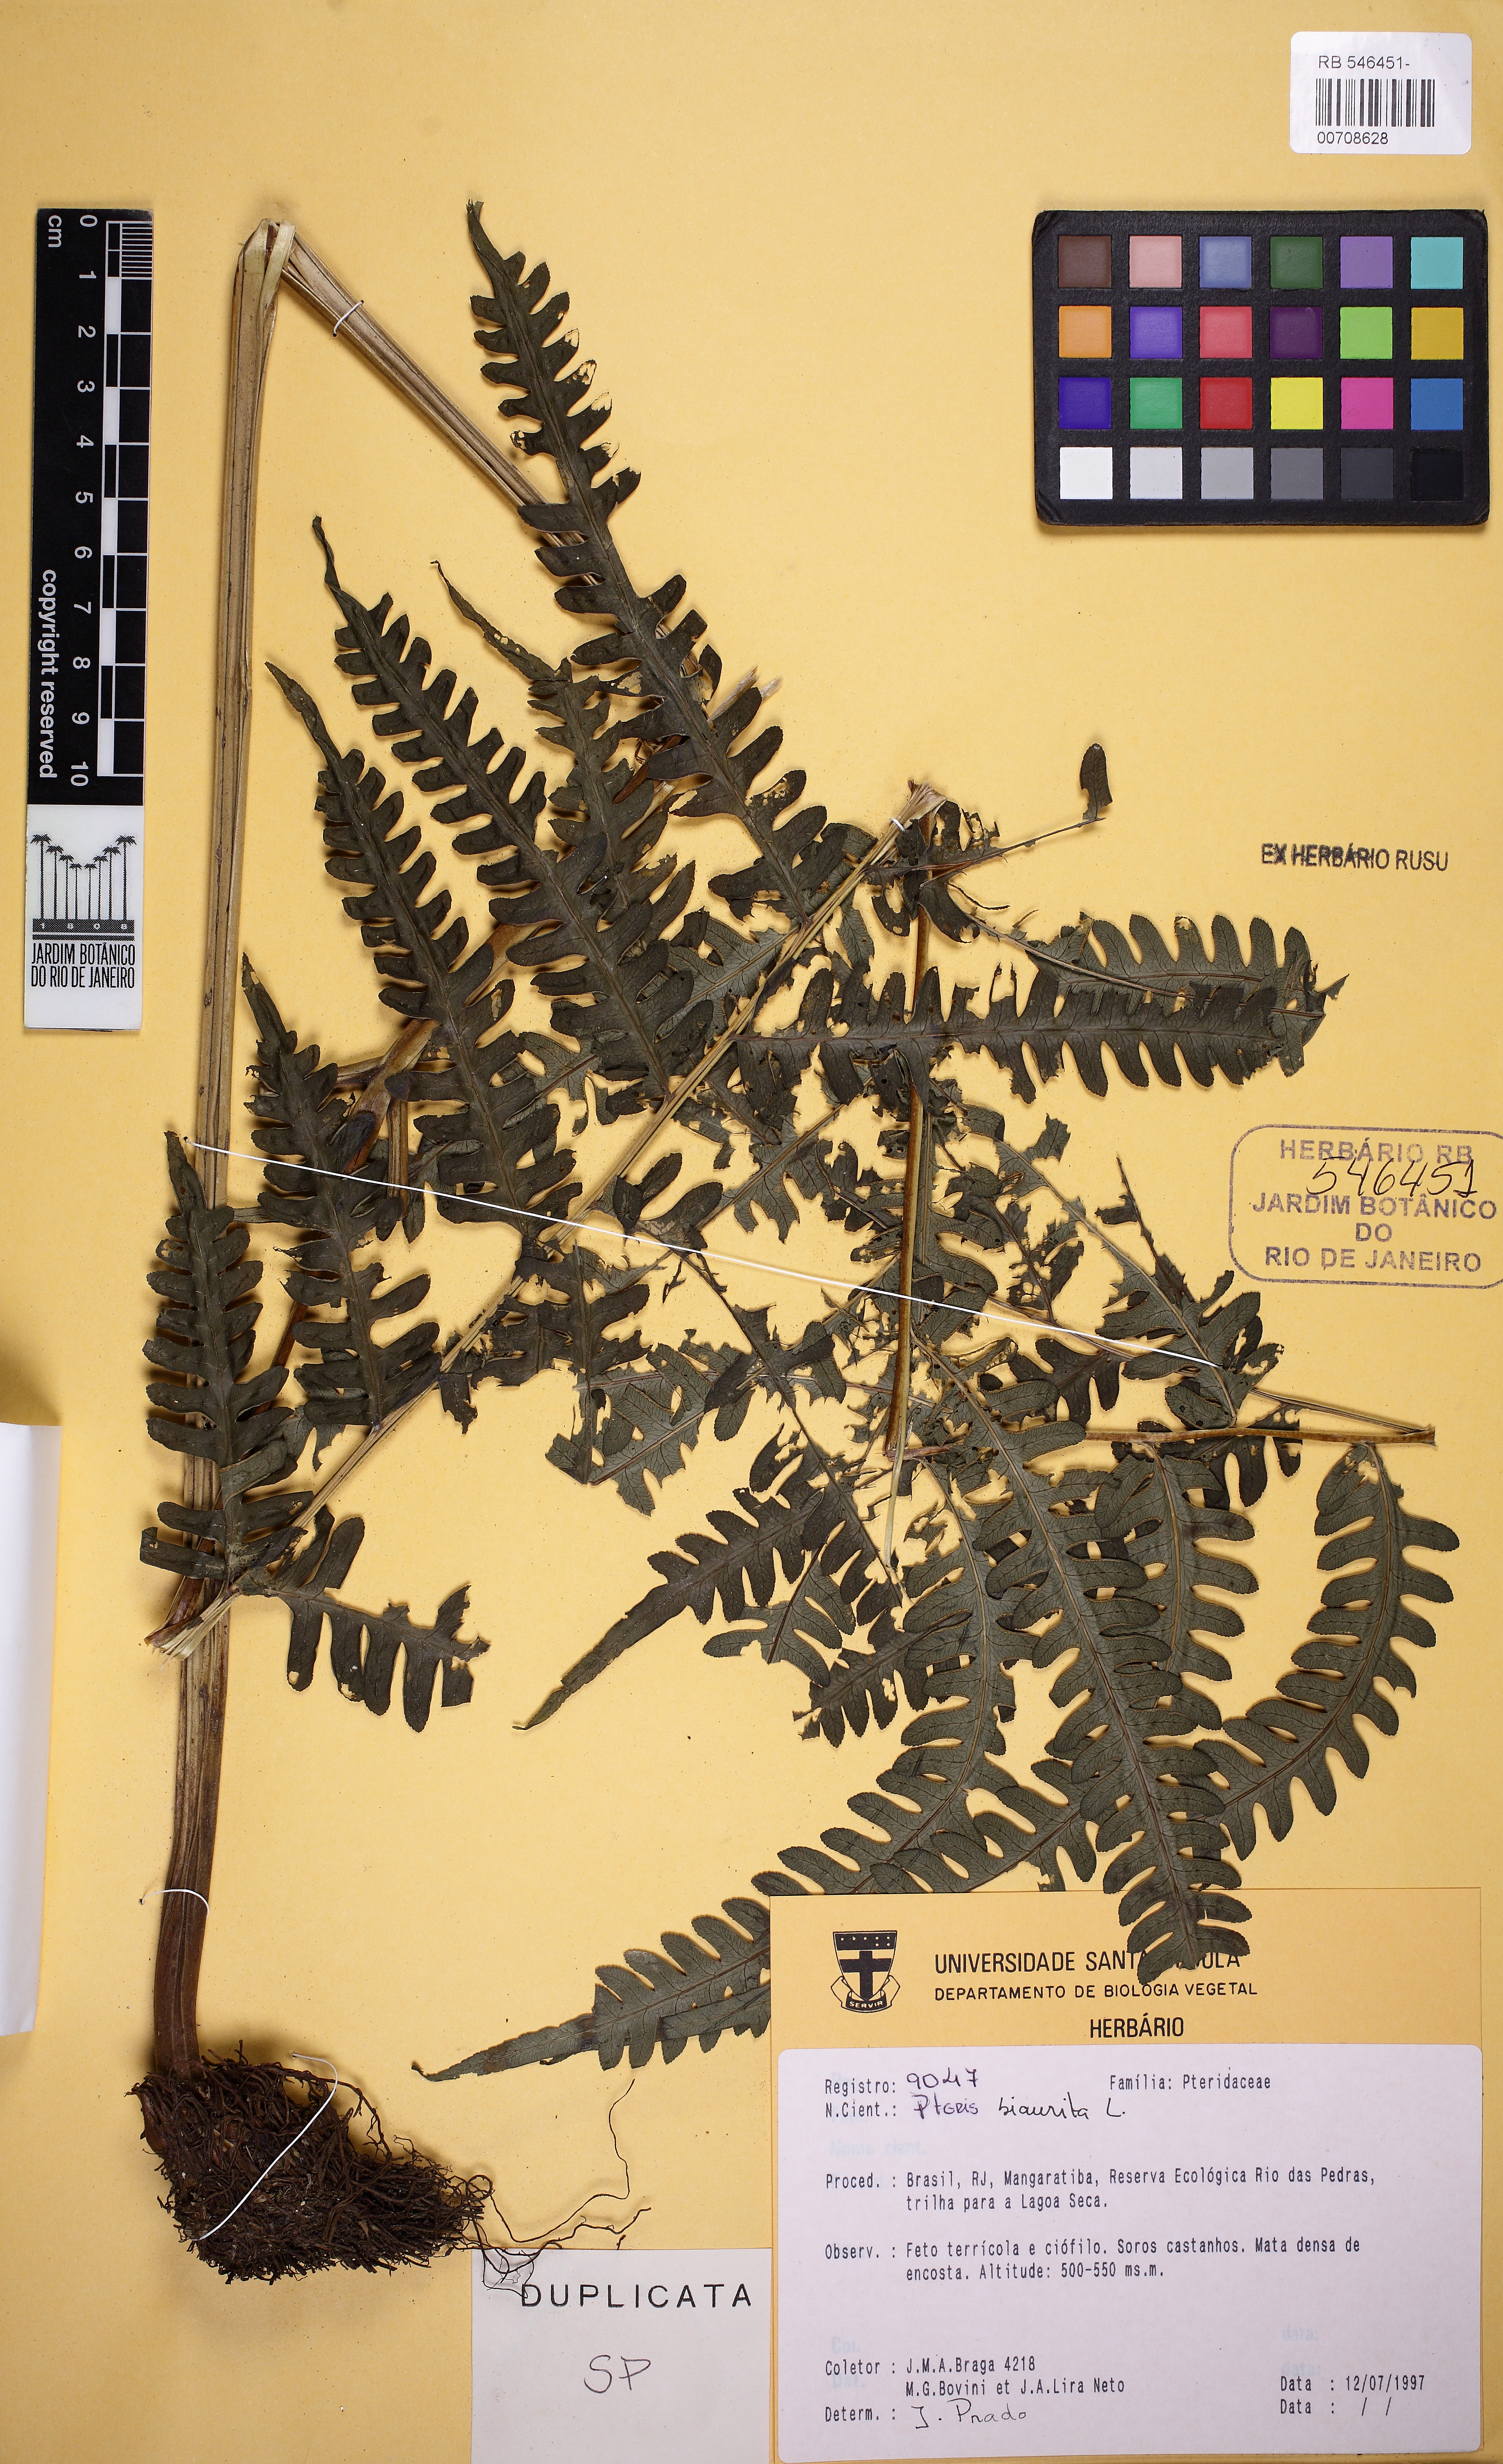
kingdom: Plantae
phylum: Tracheophyta
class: Polypodiopsida
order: Polypodiales
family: Pteridaceae
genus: Pteris
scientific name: Pteris biaurita
